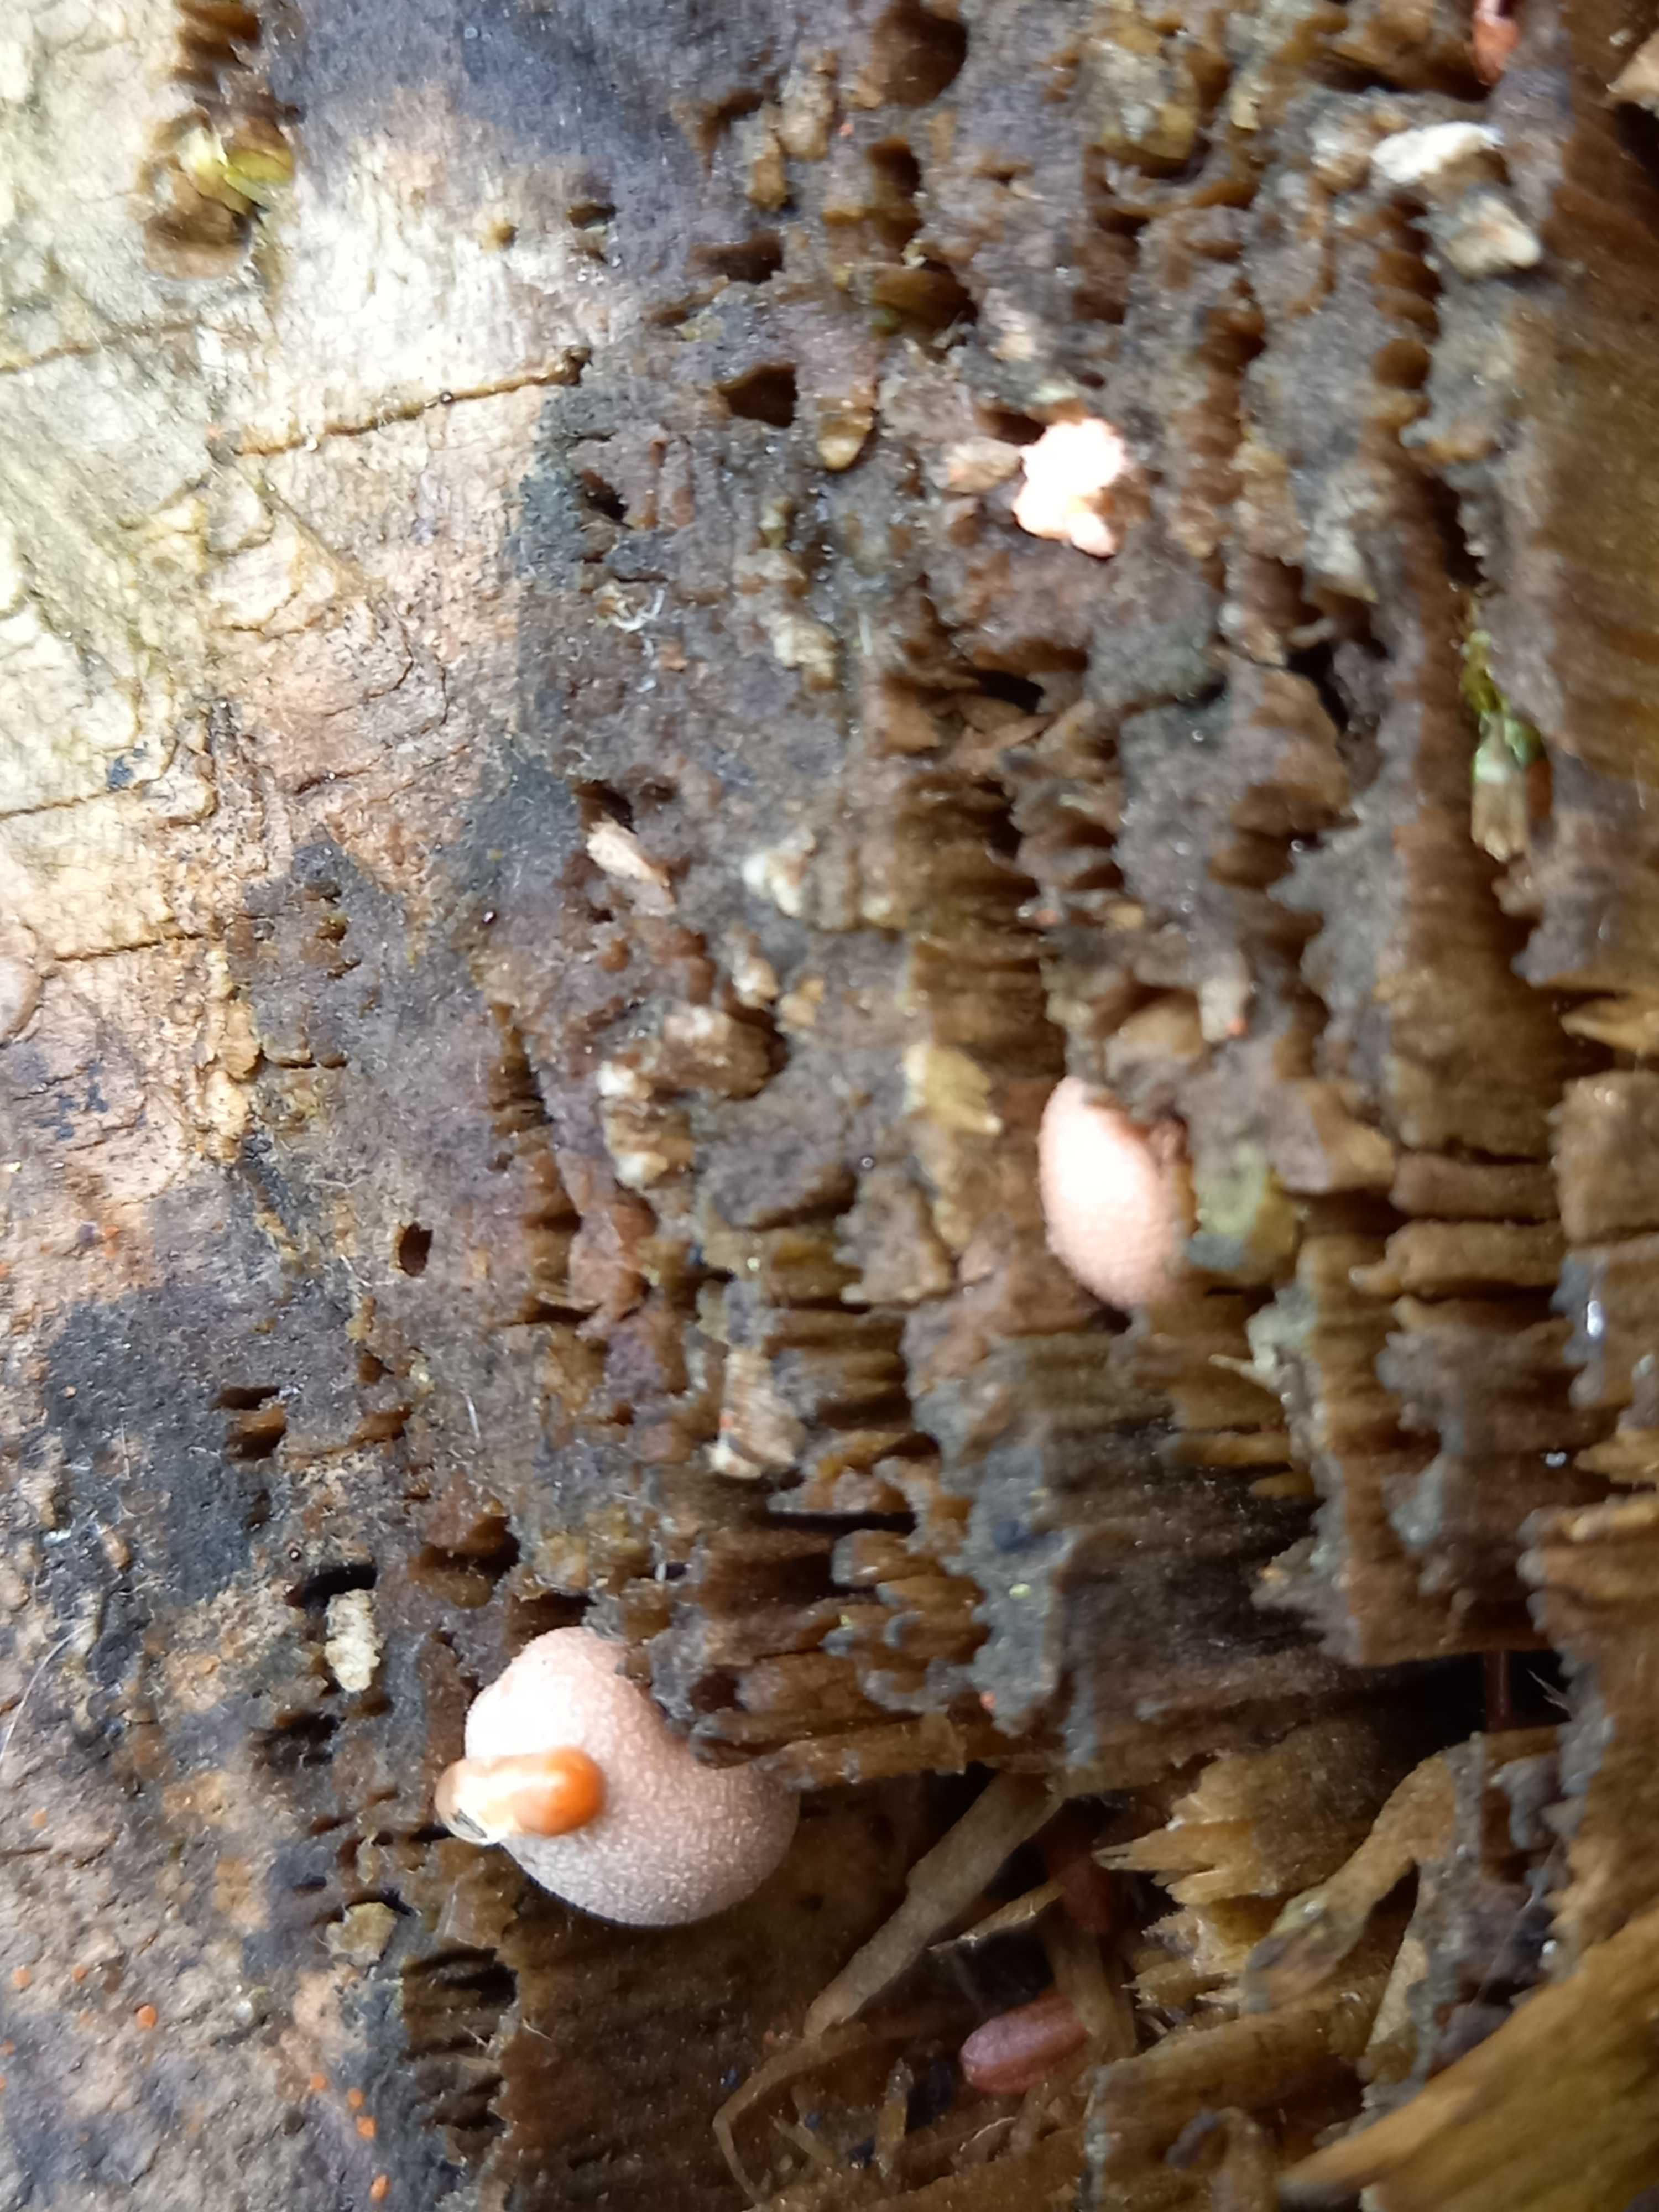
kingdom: Protozoa
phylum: Mycetozoa
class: Myxomycetes
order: Cribrariales
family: Tubiferaceae
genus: Lycogala
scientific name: Lycogala epidendrum
